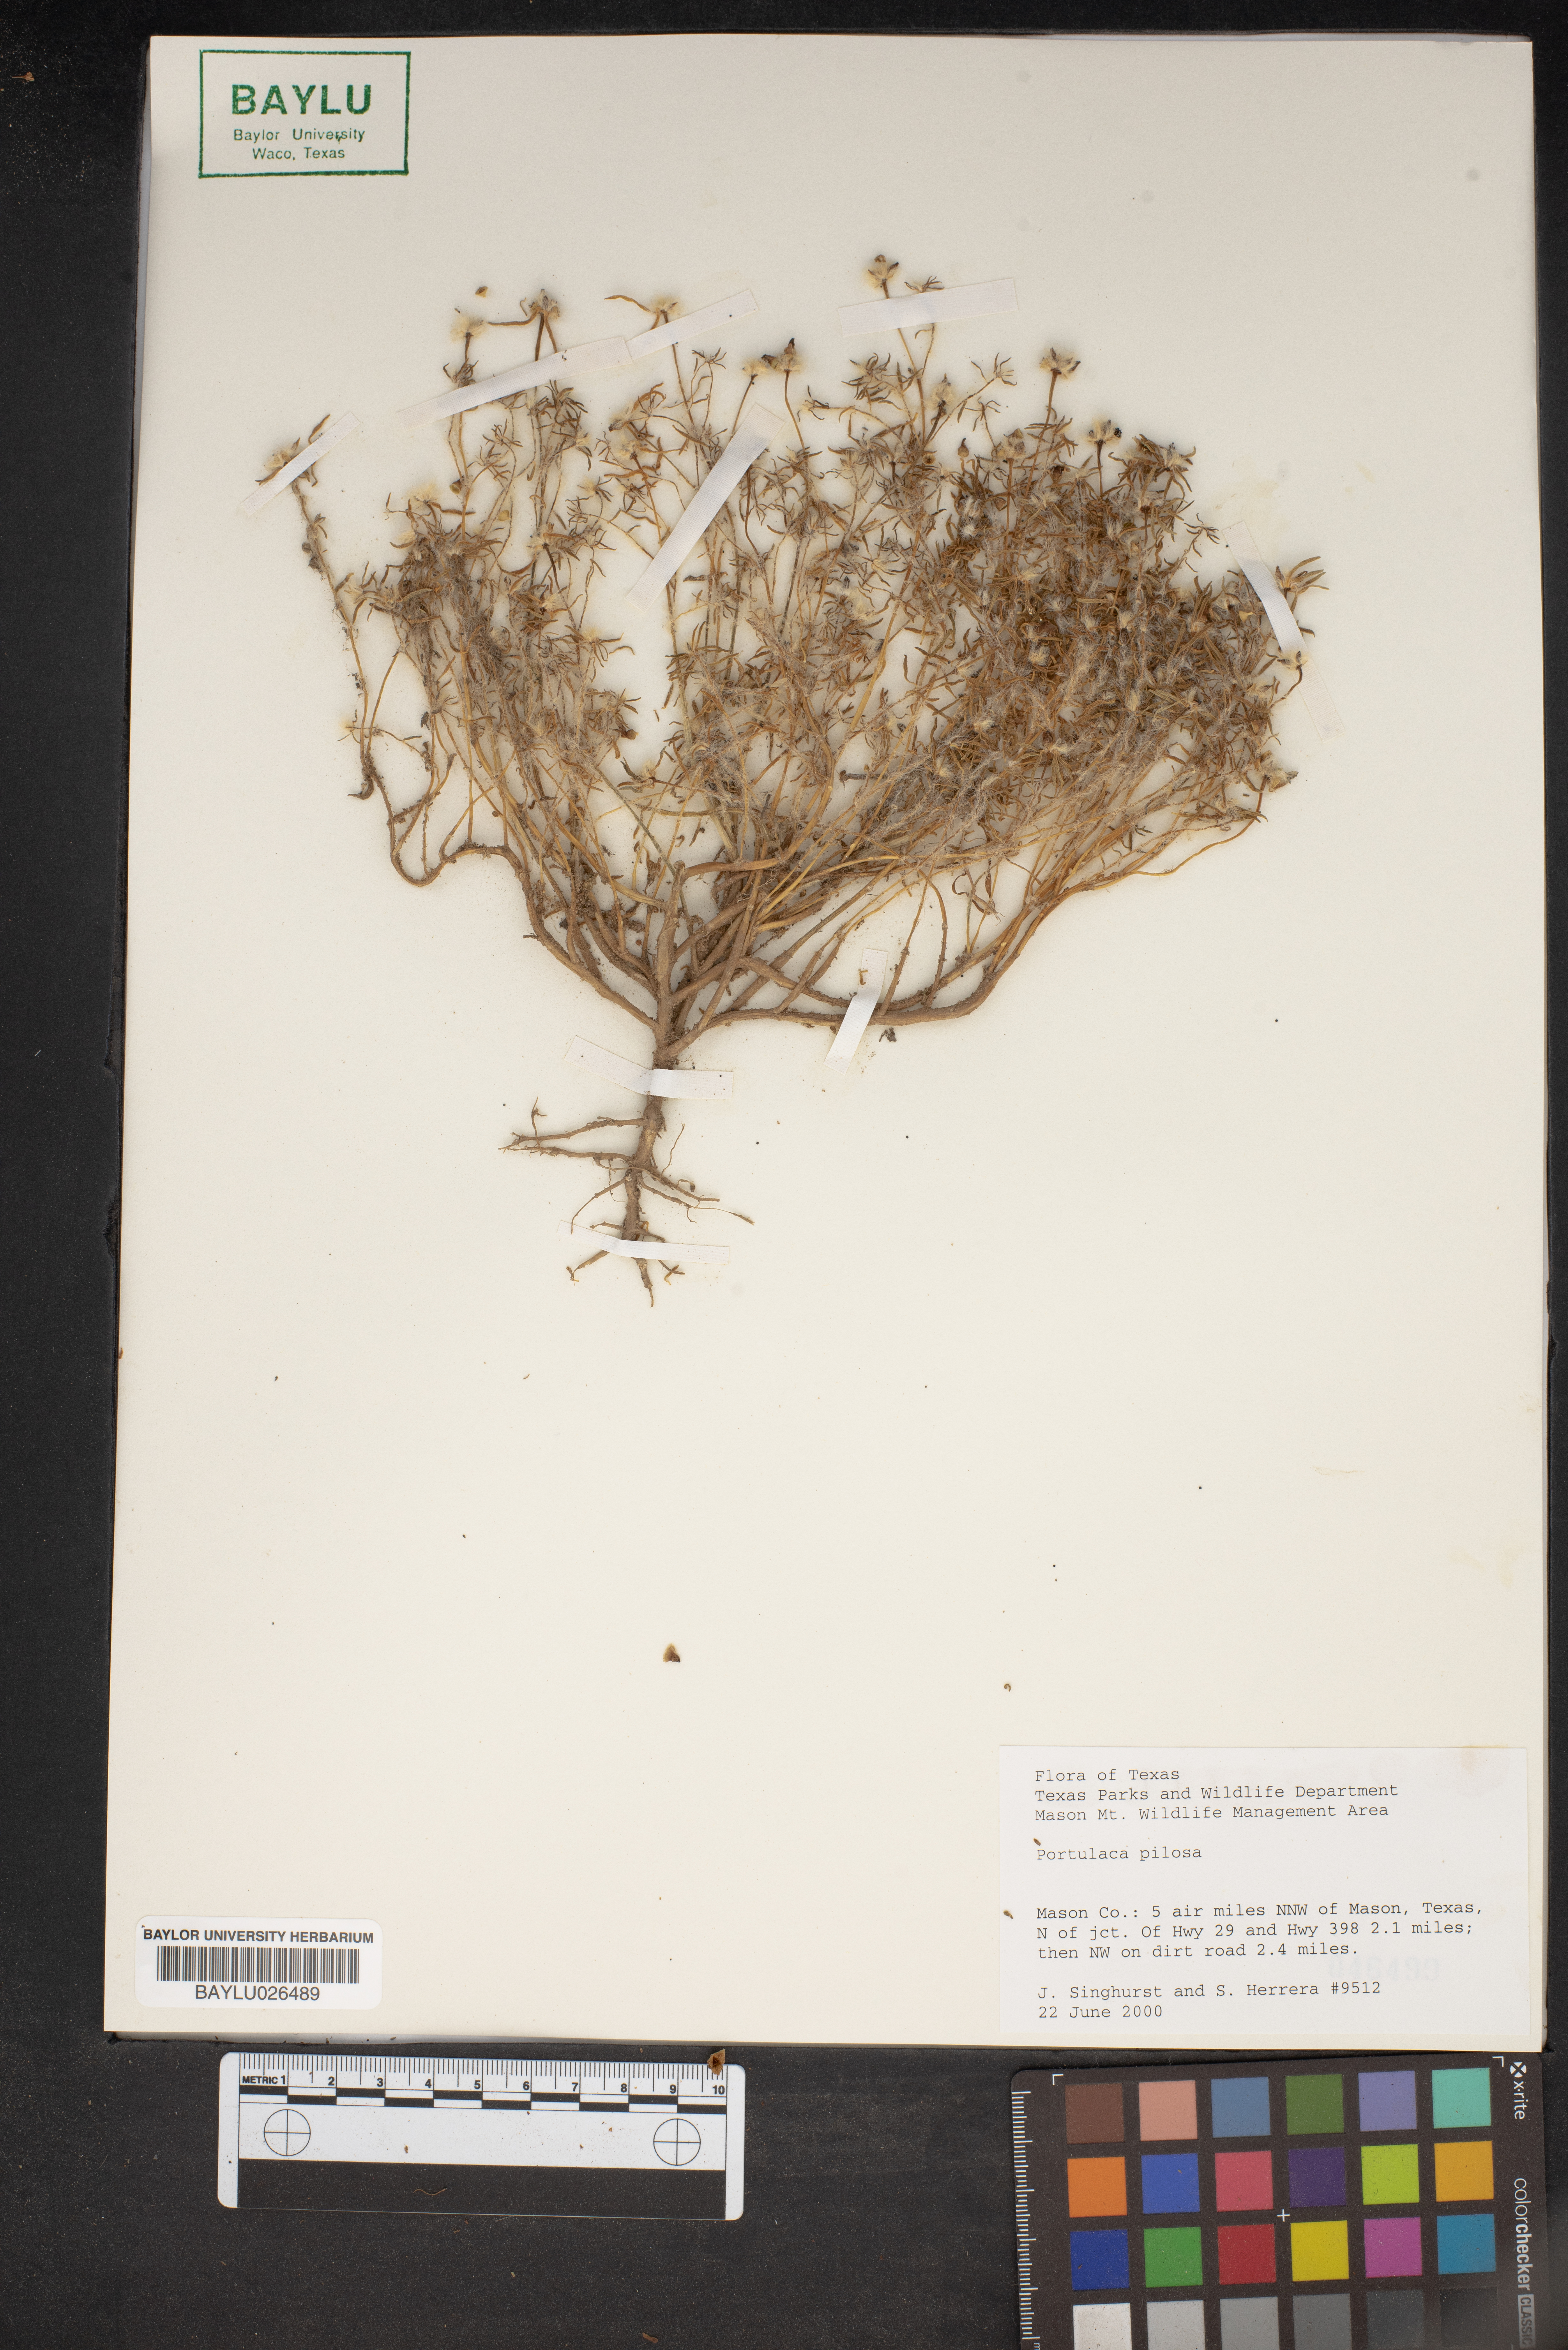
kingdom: Plantae
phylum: Tracheophyta
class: Magnoliopsida
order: Caryophyllales
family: Portulacaceae
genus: Portulaca
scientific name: Portulaca pilosa
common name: Kiss me quick
